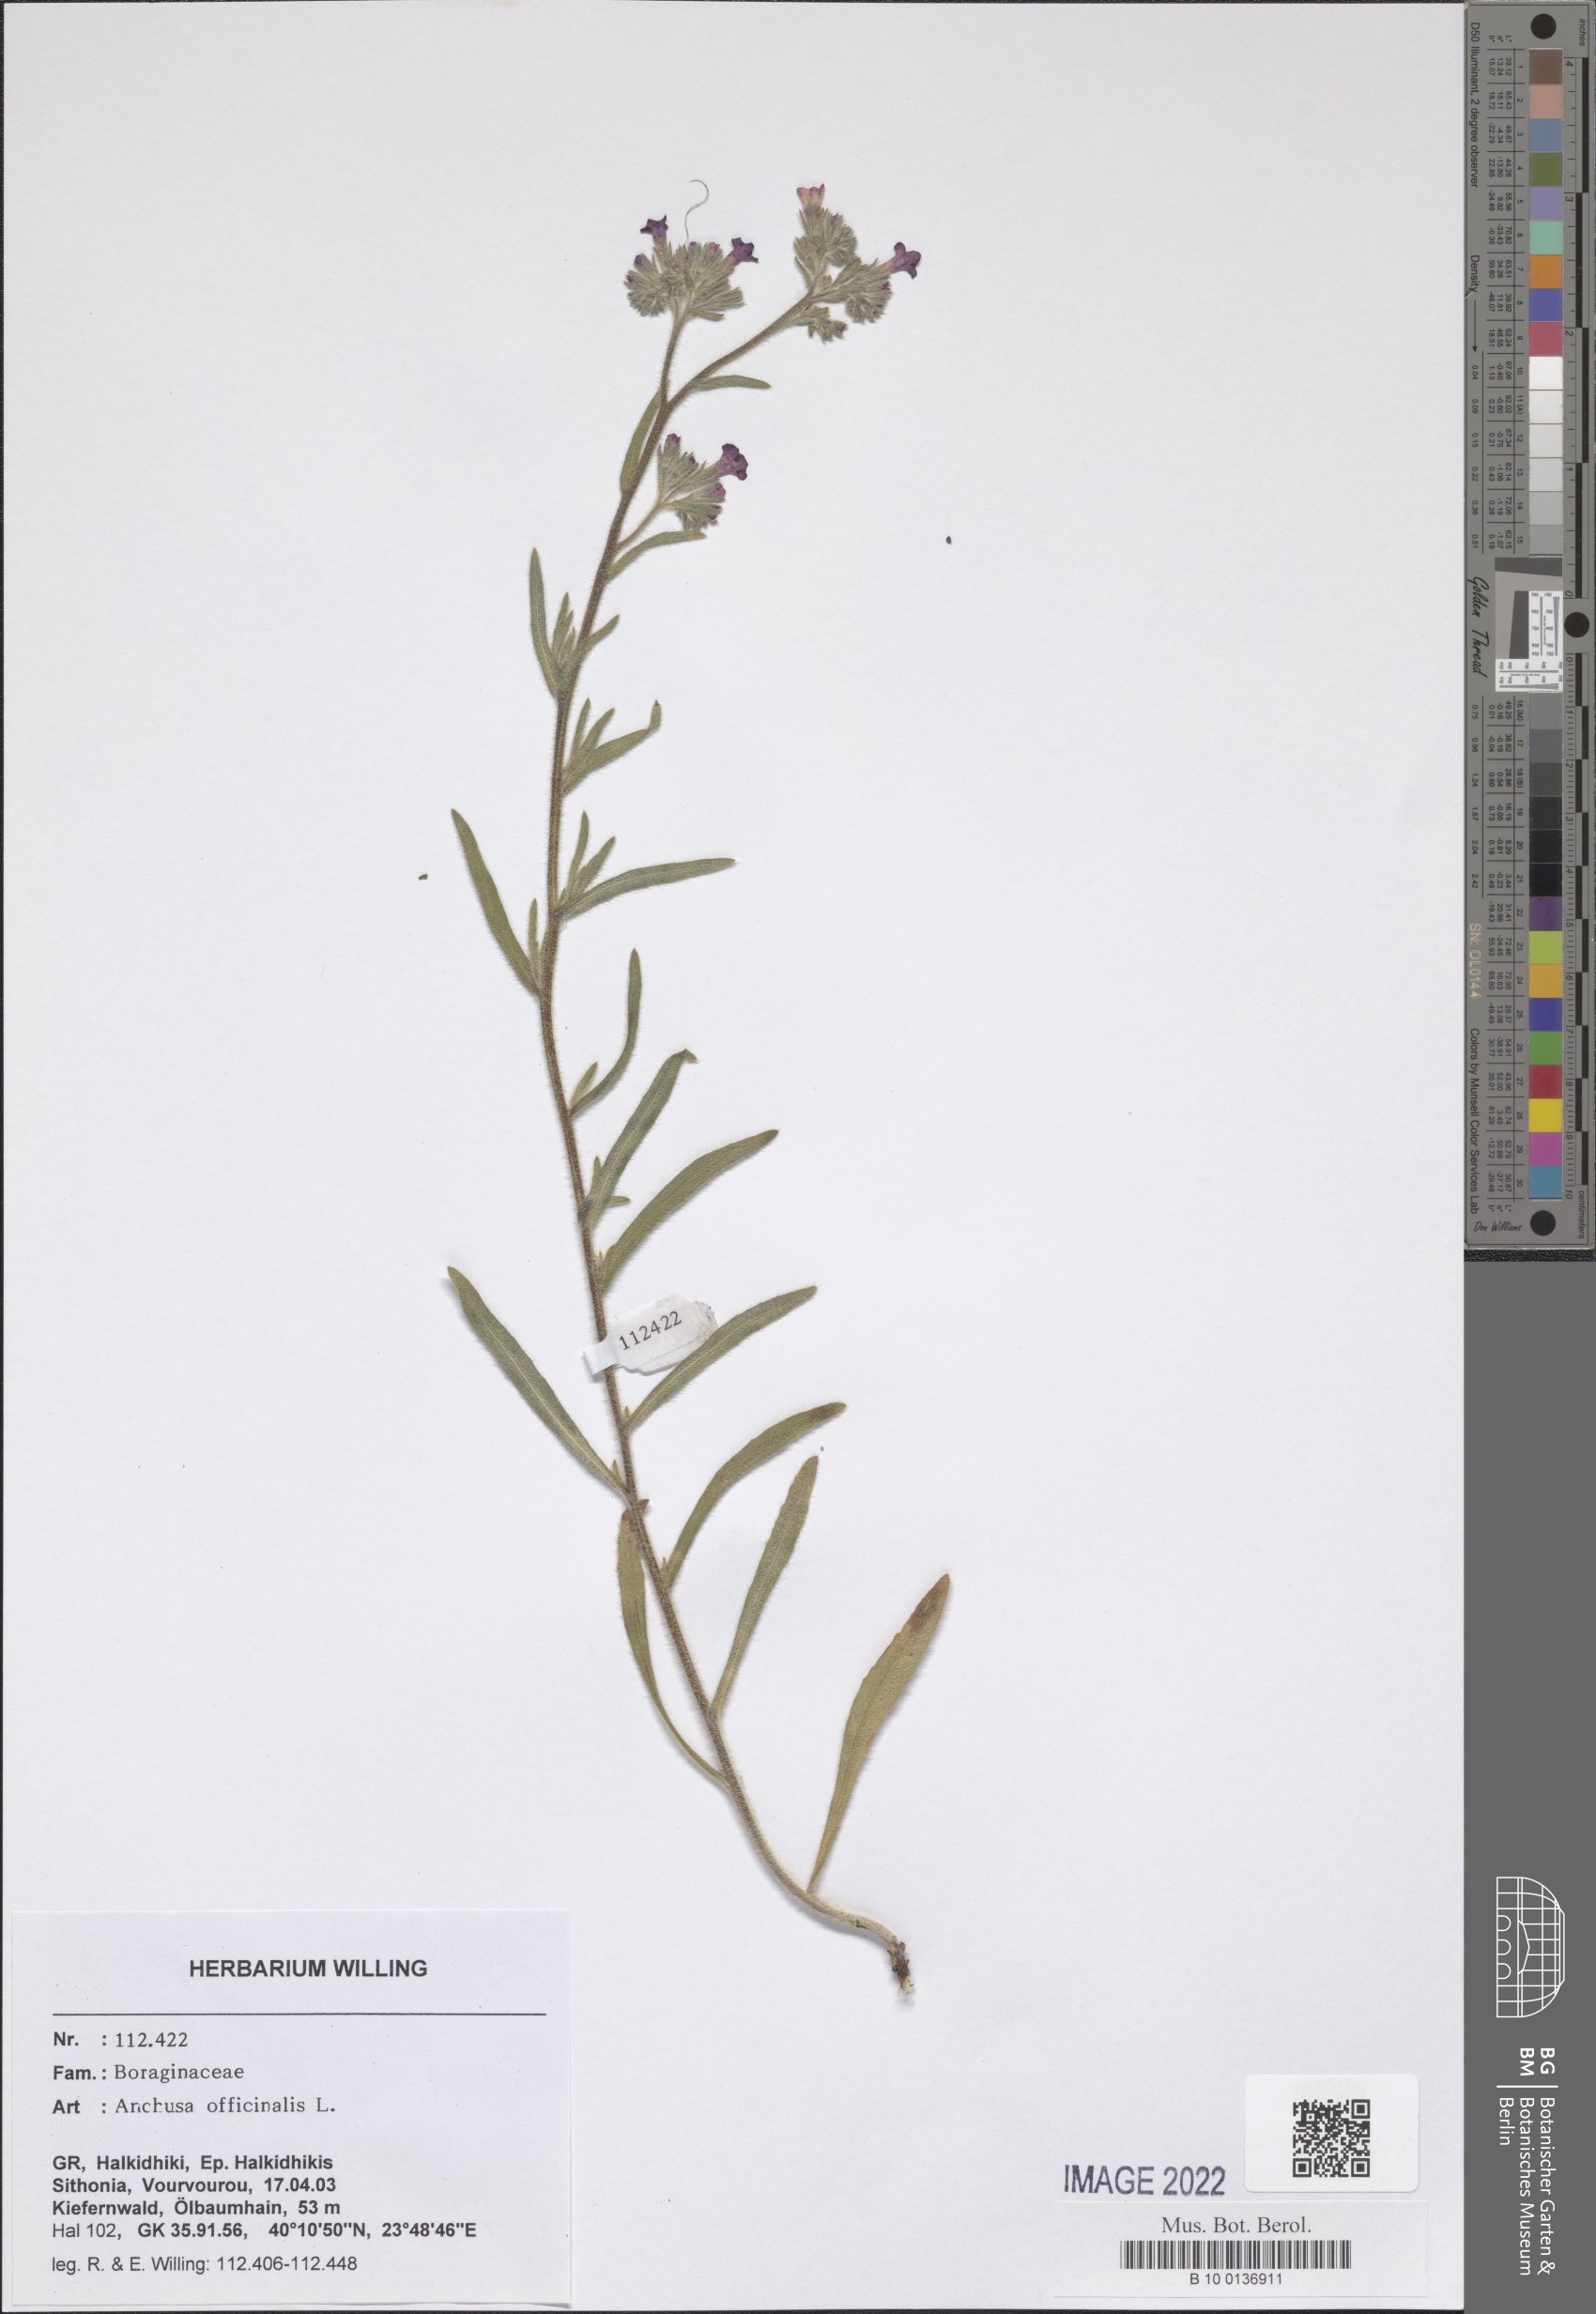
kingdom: Plantae
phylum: Tracheophyta
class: Magnoliopsida
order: Boraginales
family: Boraginaceae
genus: Anchusa
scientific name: Anchusa officinalis
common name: Alkanet
